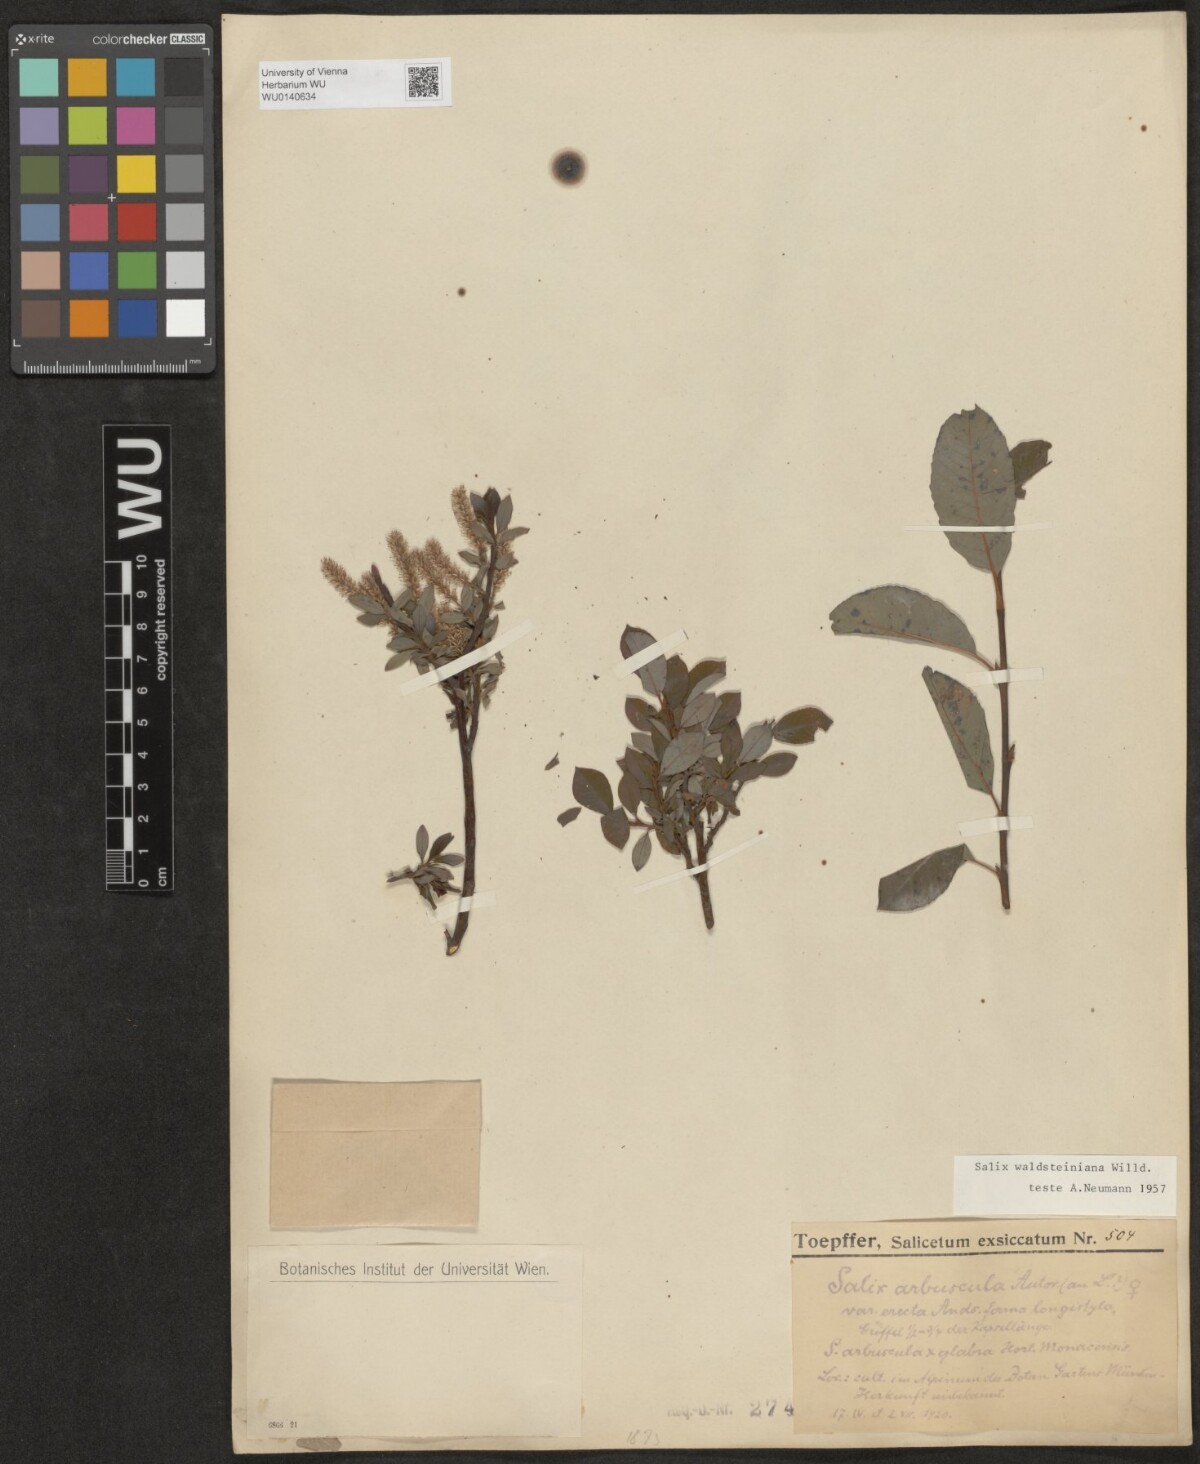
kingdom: Plantae
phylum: Tracheophyta
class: Magnoliopsida
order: Malpighiales
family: Salicaceae
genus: Salix
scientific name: Salix waldsteiniana
